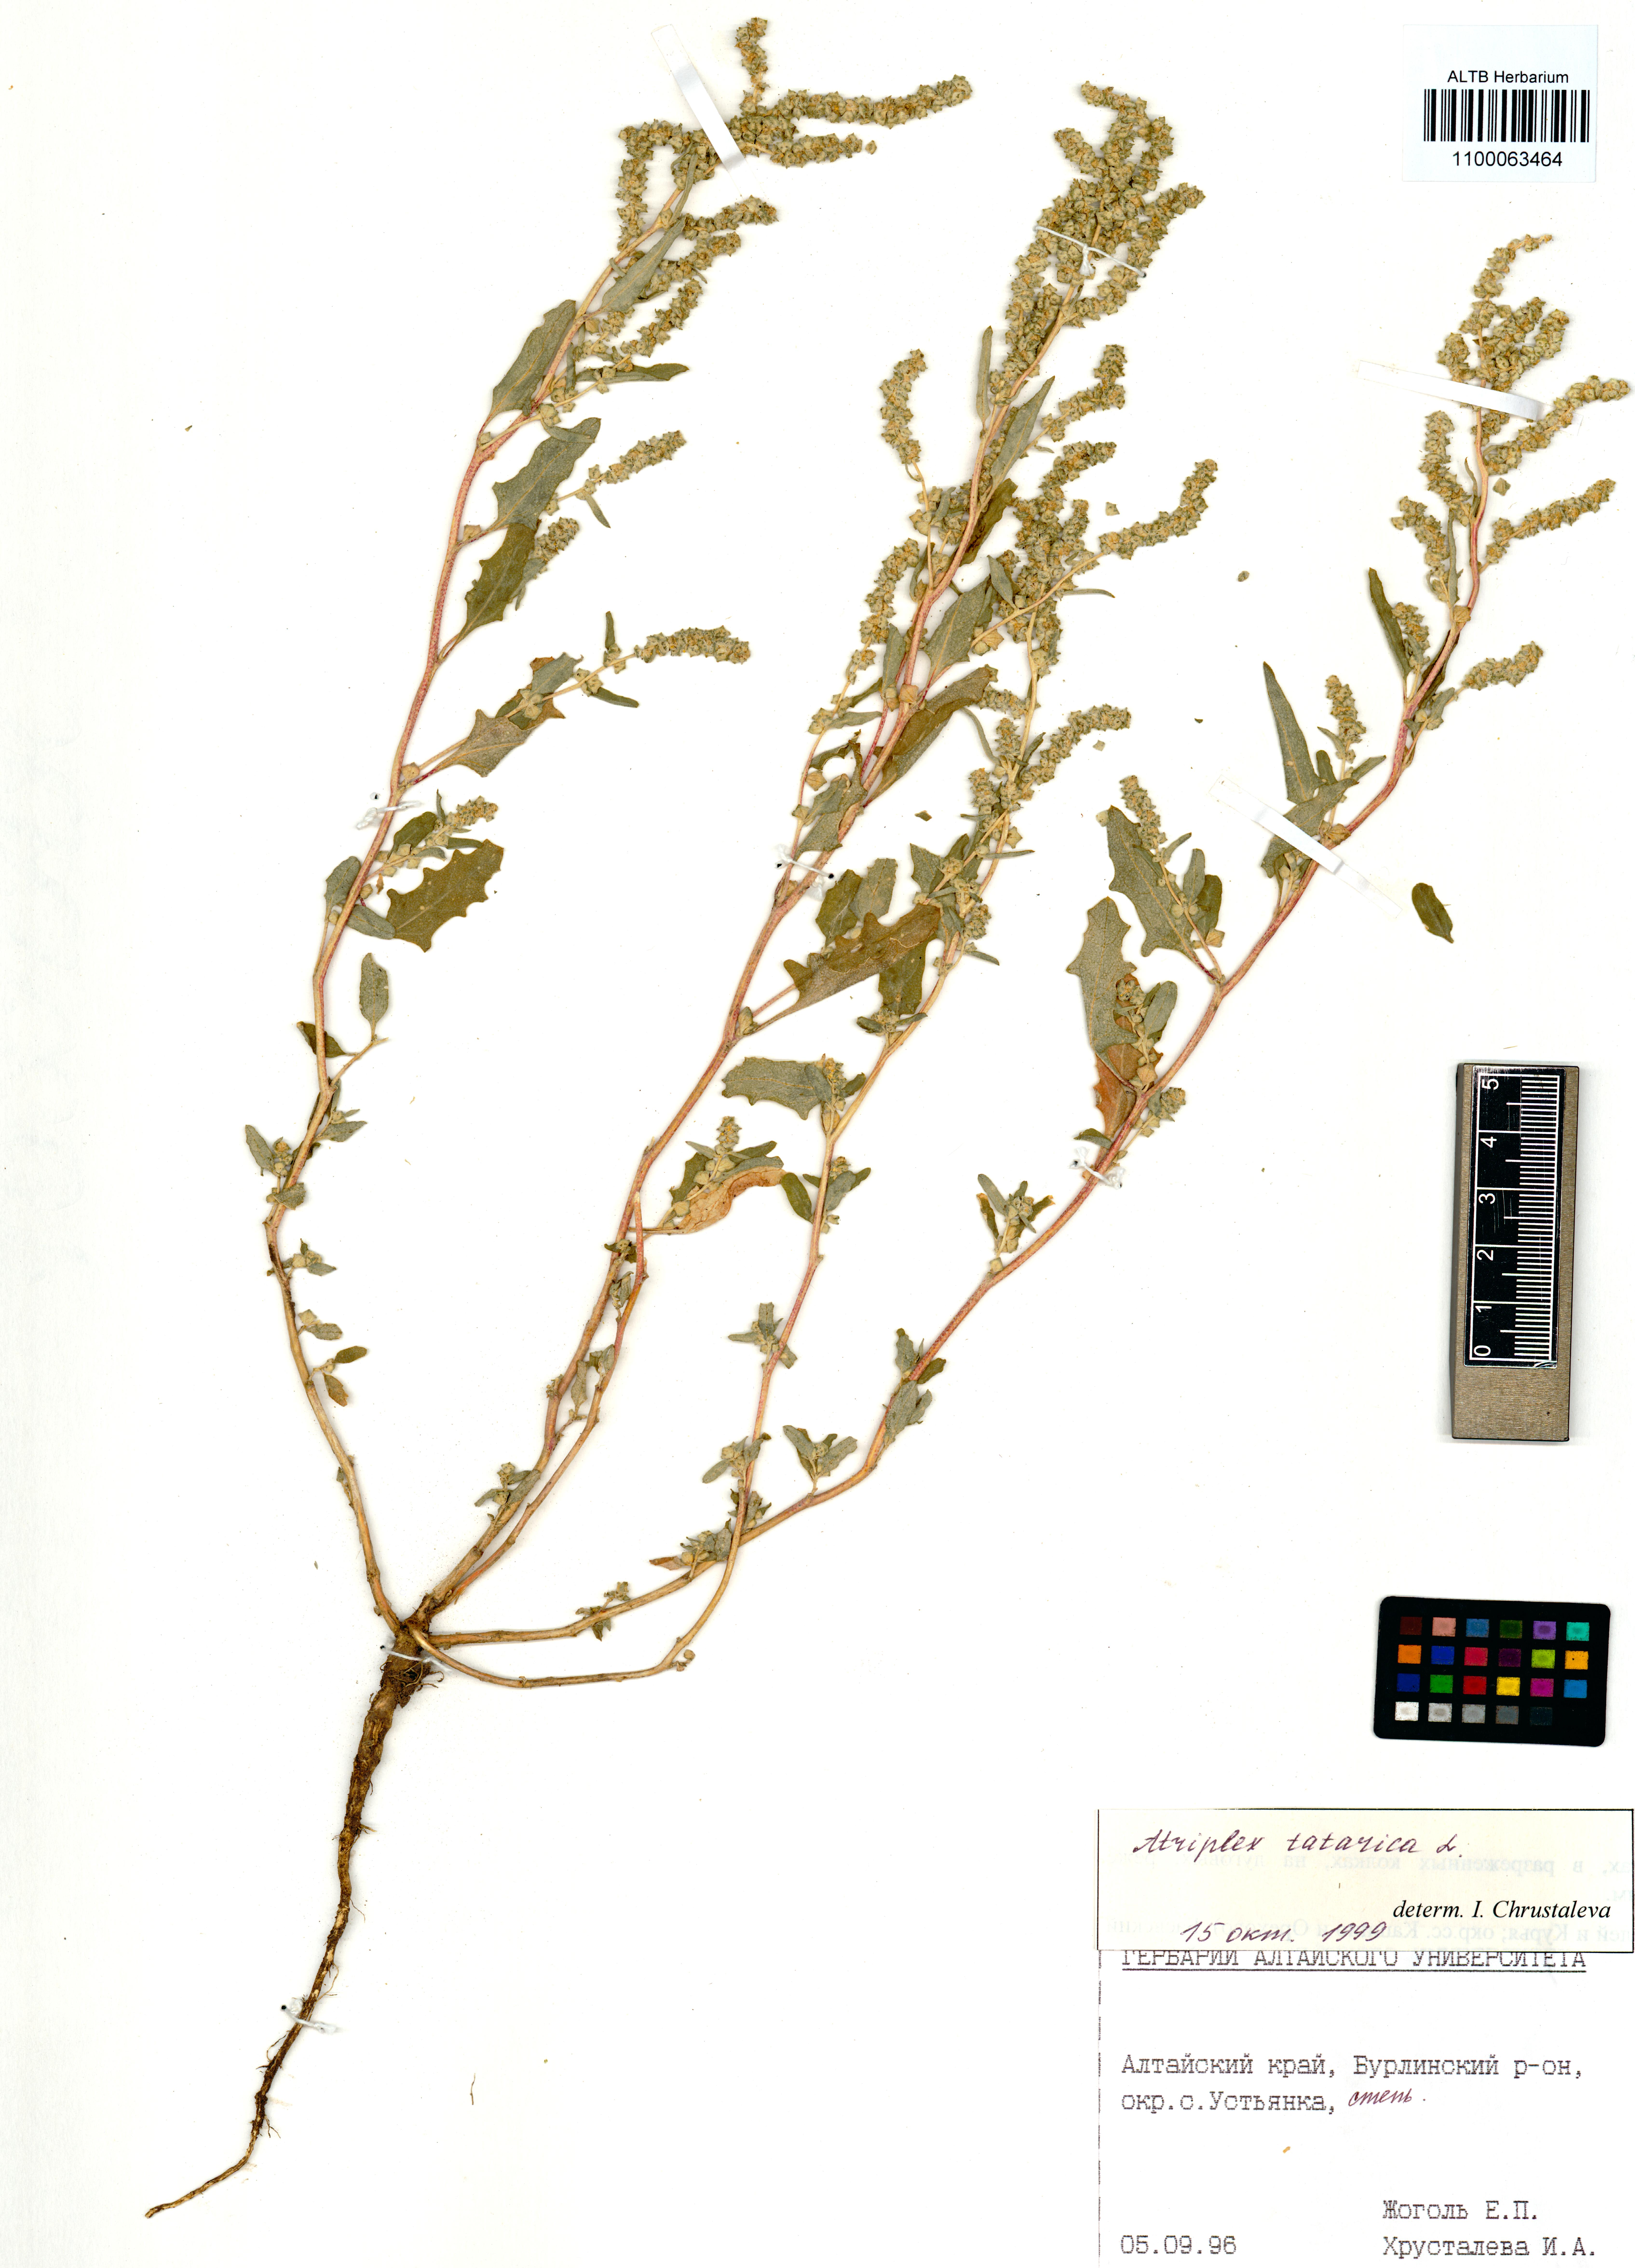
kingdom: Plantae
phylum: Tracheophyta
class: Magnoliopsida
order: Caryophyllales
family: Amaranthaceae
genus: Atriplex
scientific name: Atriplex tatarica
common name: Tatarian orache
